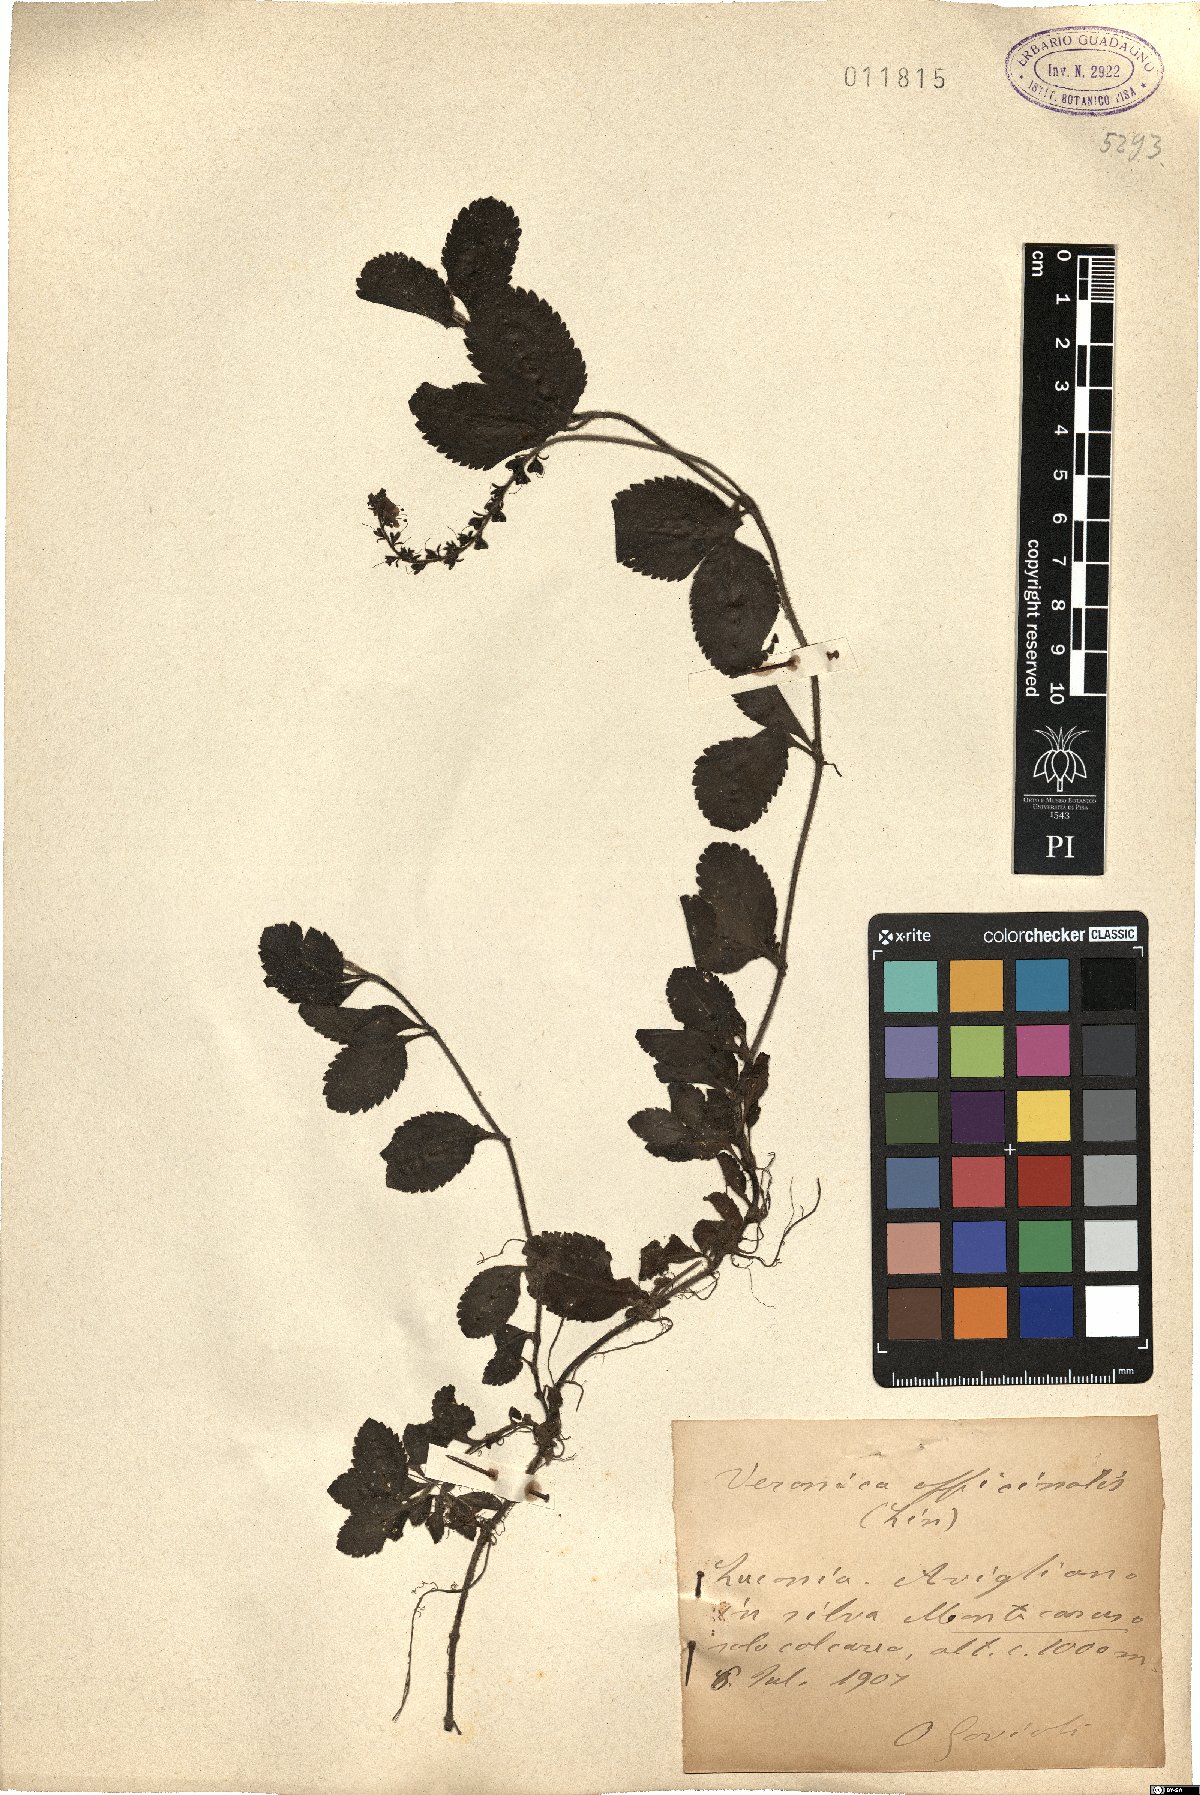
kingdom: Plantae
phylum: Tracheophyta
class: Magnoliopsida
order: Lamiales
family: Plantaginaceae
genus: Veronica
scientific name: Veronica officinalis
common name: Common speedwell
